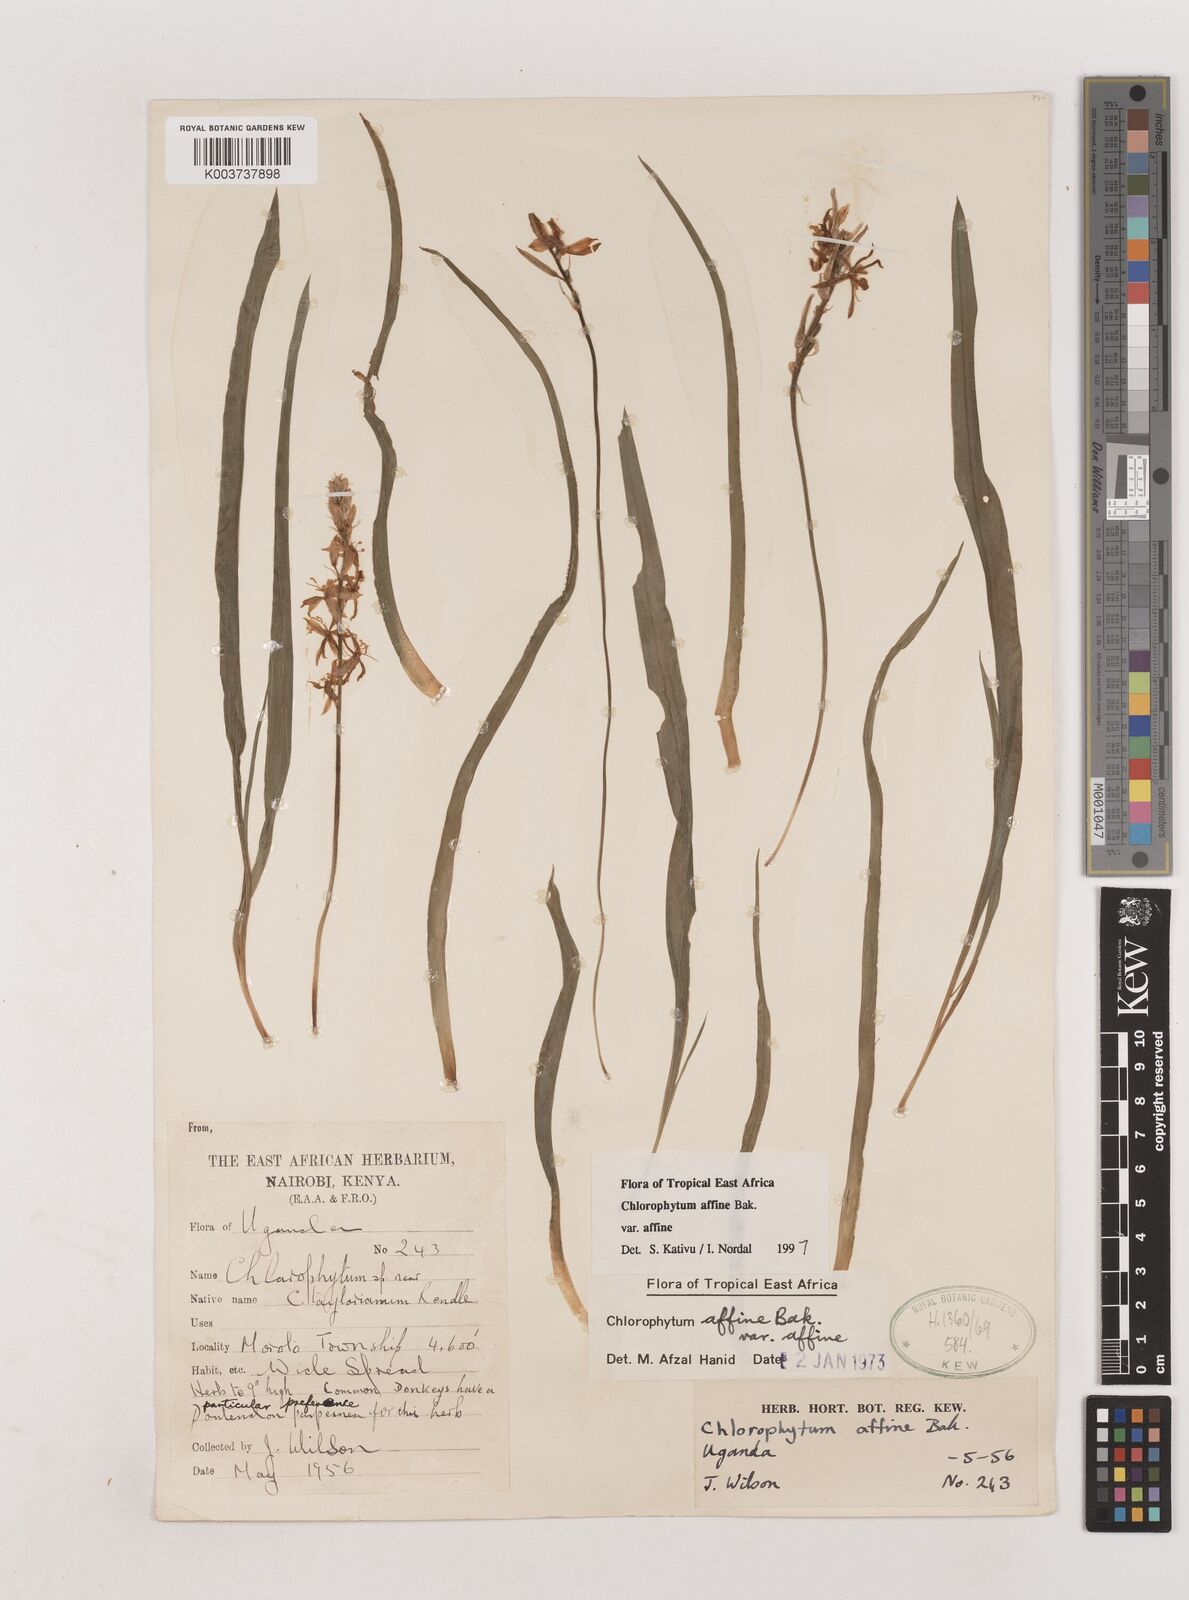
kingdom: Plantae
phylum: Tracheophyta
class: Liliopsida
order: Asparagales
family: Asparagaceae
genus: Chlorophytum
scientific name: Chlorophytum affine
